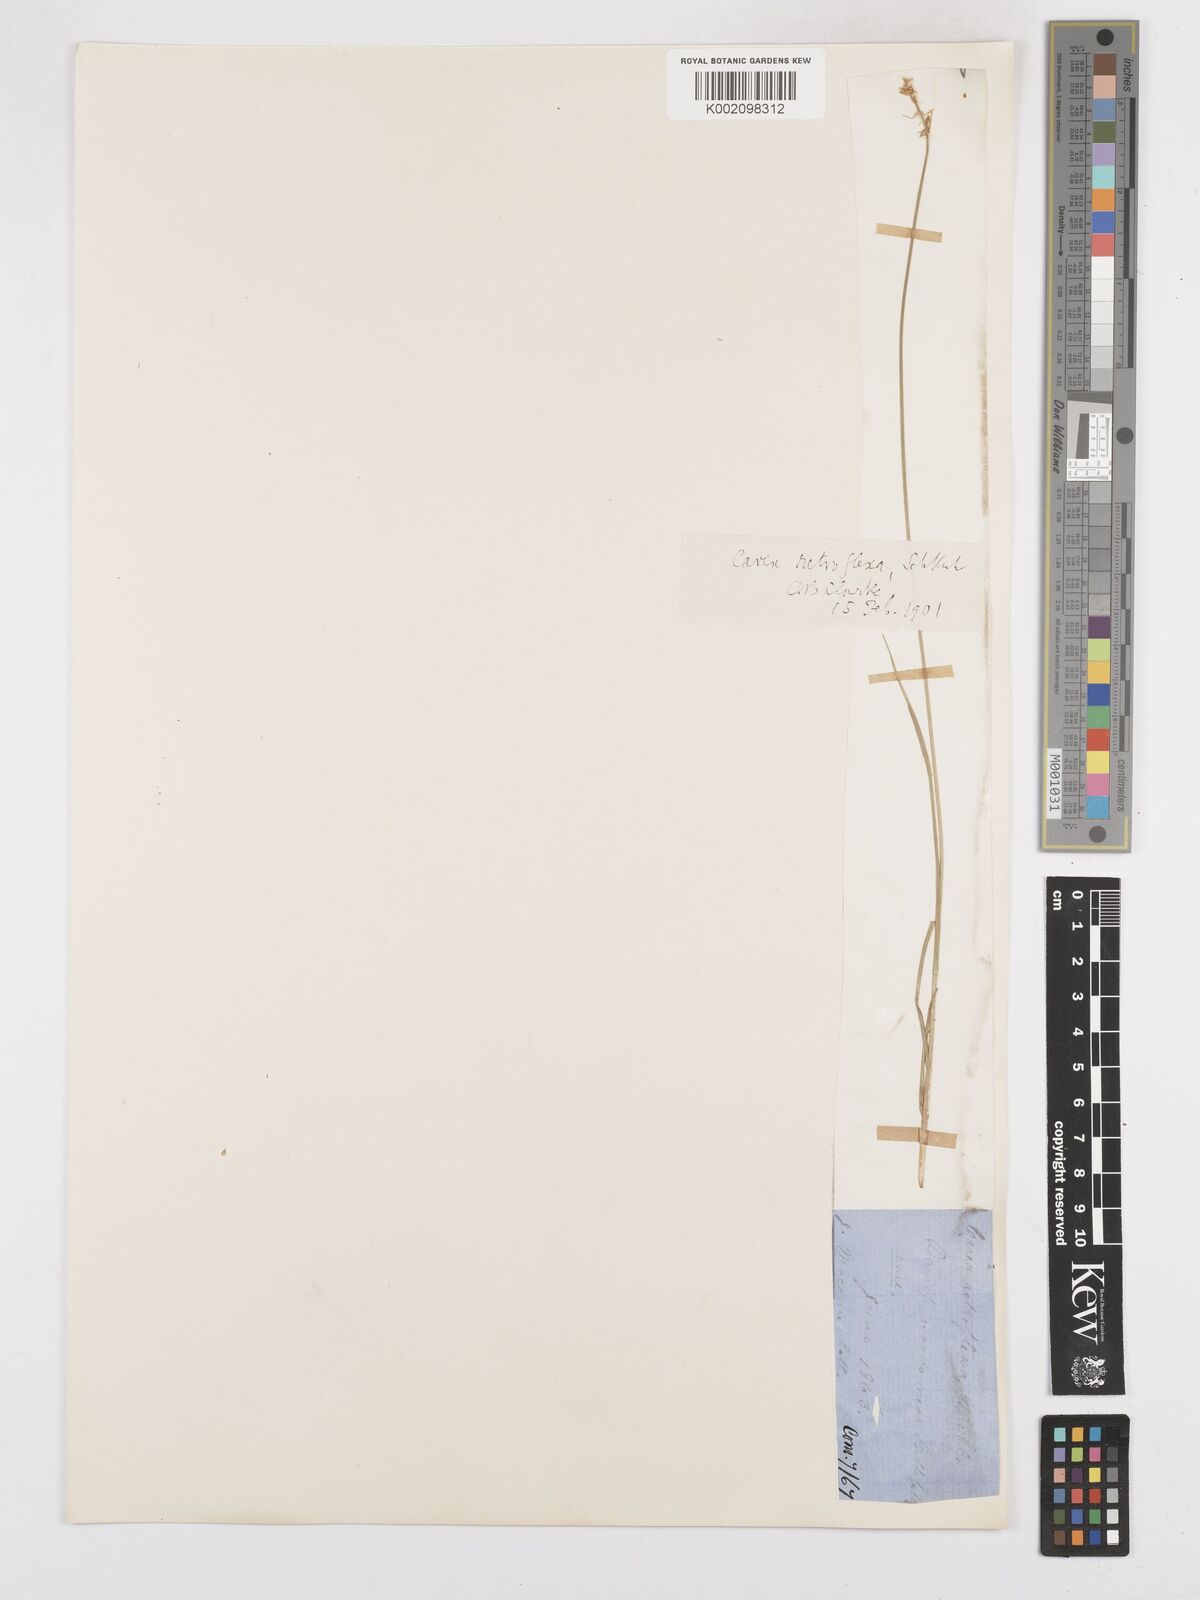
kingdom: Plantae
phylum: Tracheophyta
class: Liliopsida
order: Poales
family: Cyperaceae
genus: Carex
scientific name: Carex retroflexa
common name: Reflexed sedge
